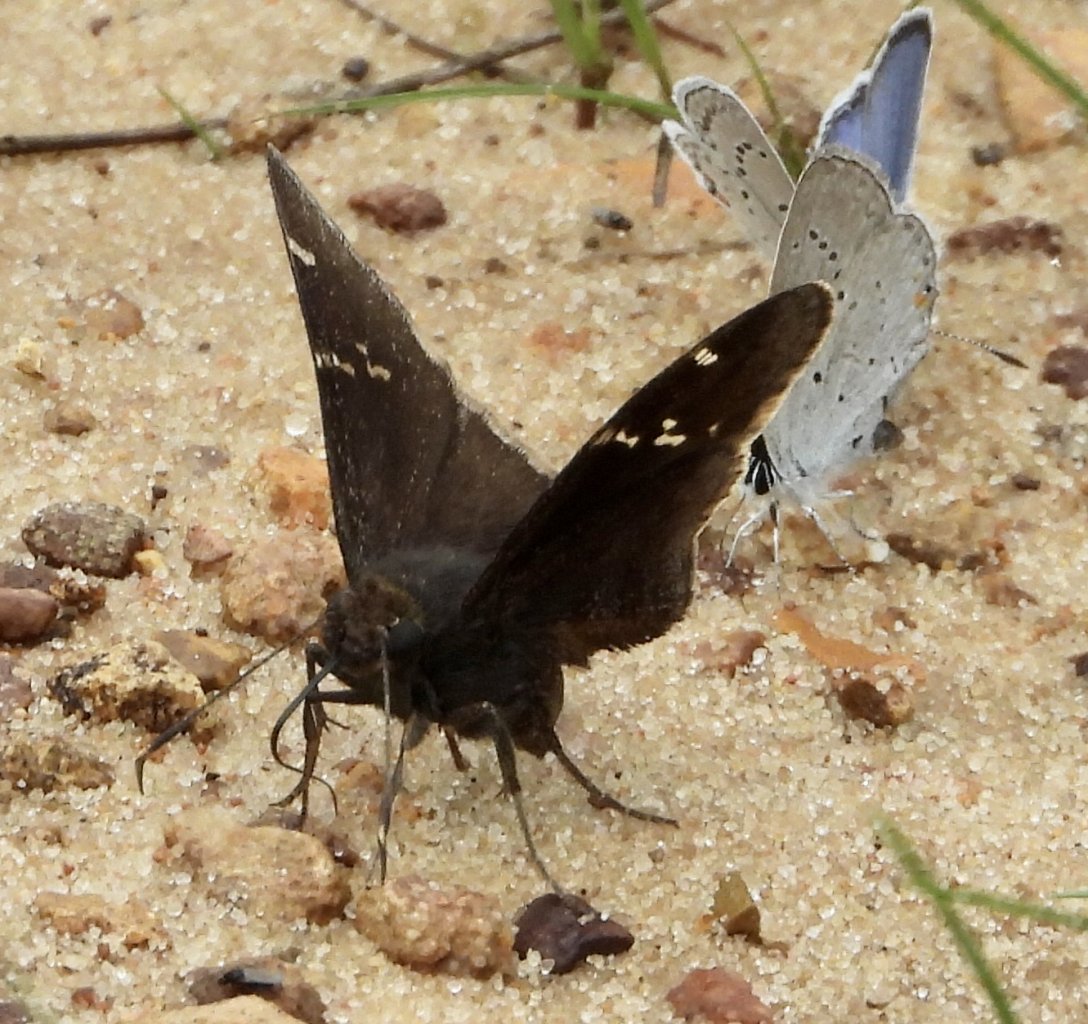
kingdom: Animalia
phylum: Arthropoda
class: Insecta
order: Lepidoptera
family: Hesperiidae
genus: Autochton
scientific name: Autochton
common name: Southern Cloudywing
